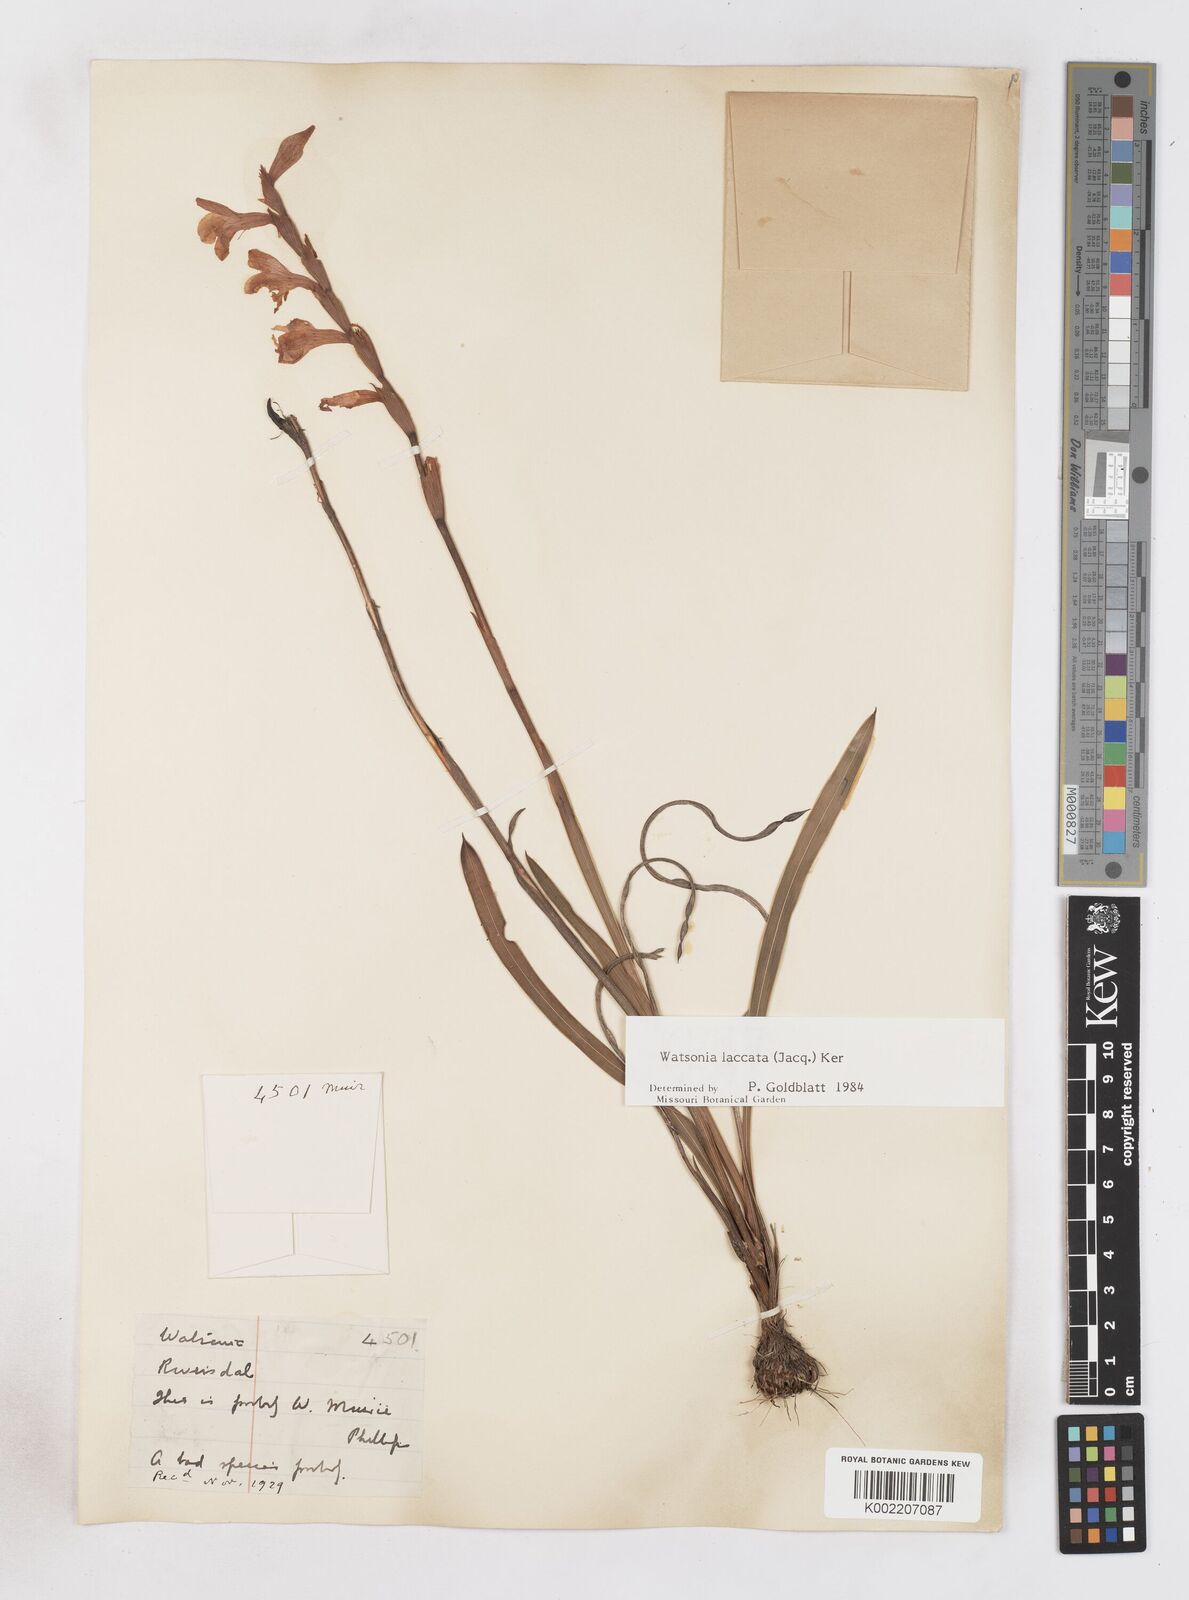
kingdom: Plantae
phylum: Tracheophyta
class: Liliopsida
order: Asparagales
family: Iridaceae
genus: Watsonia
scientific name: Watsonia laccata
